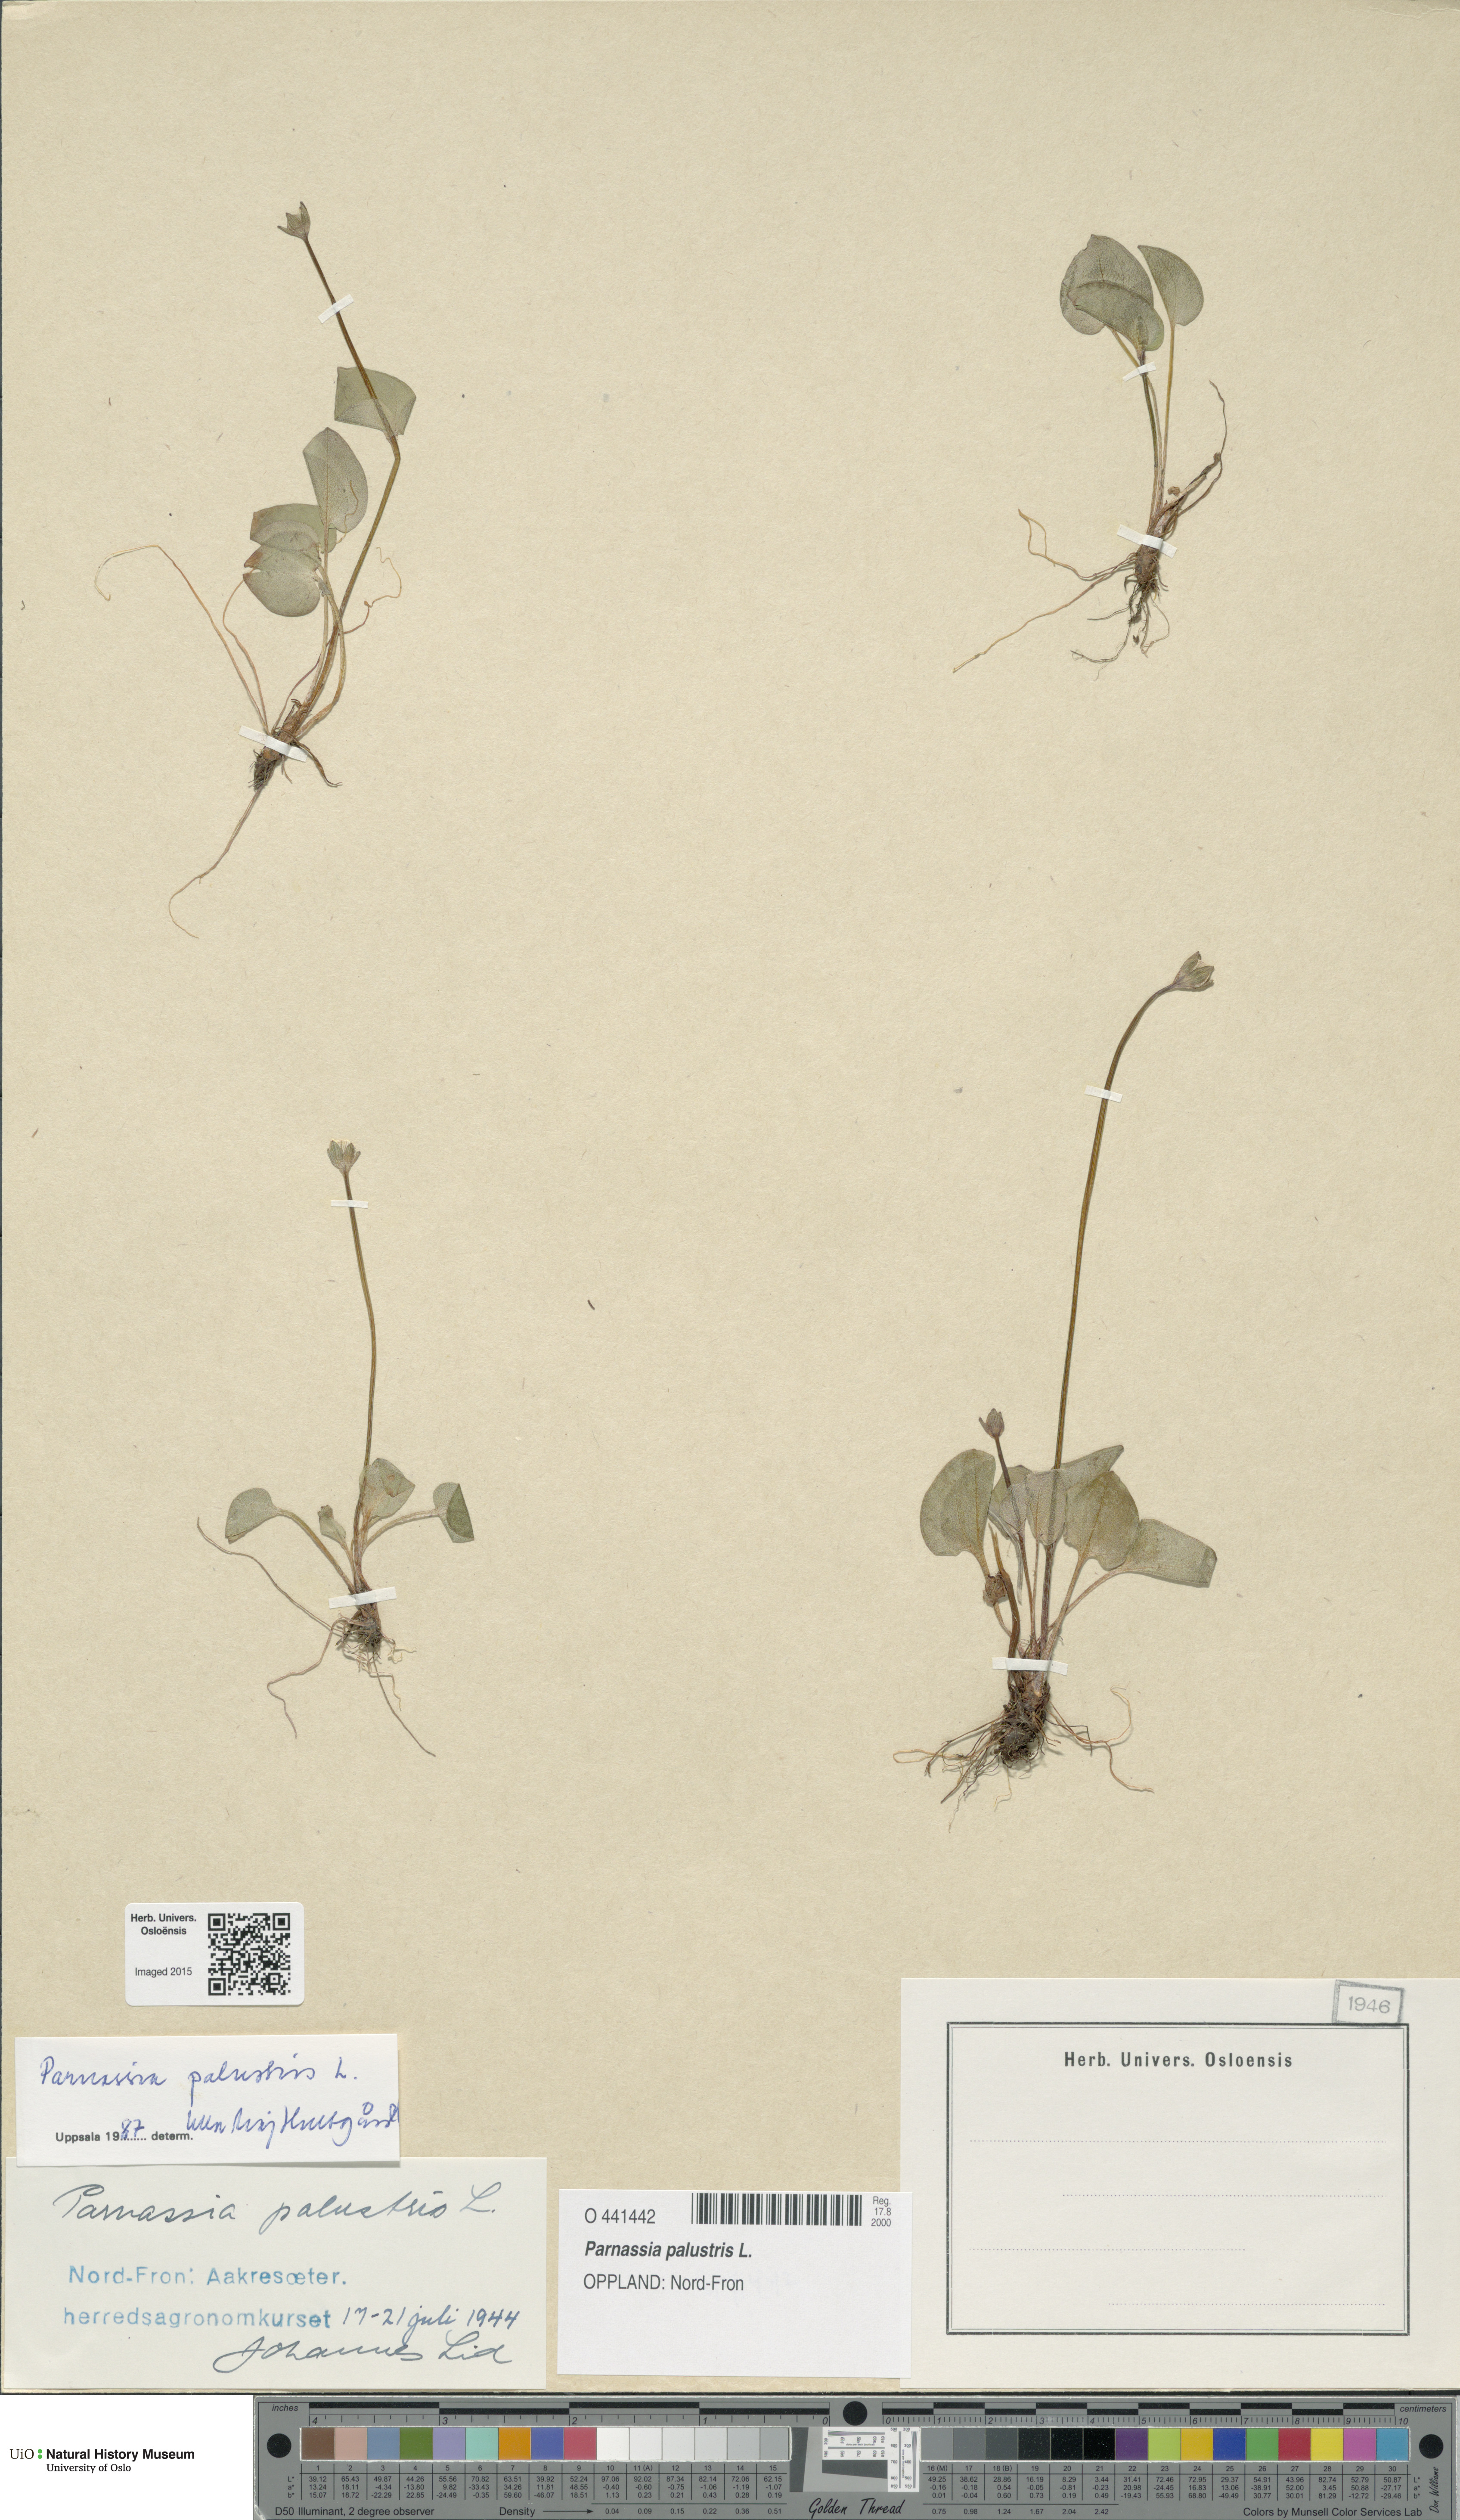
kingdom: Plantae
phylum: Tracheophyta
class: Magnoliopsida
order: Celastrales
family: Parnassiaceae
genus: Parnassia
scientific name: Parnassia palustris
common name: Grass-of-parnassus
